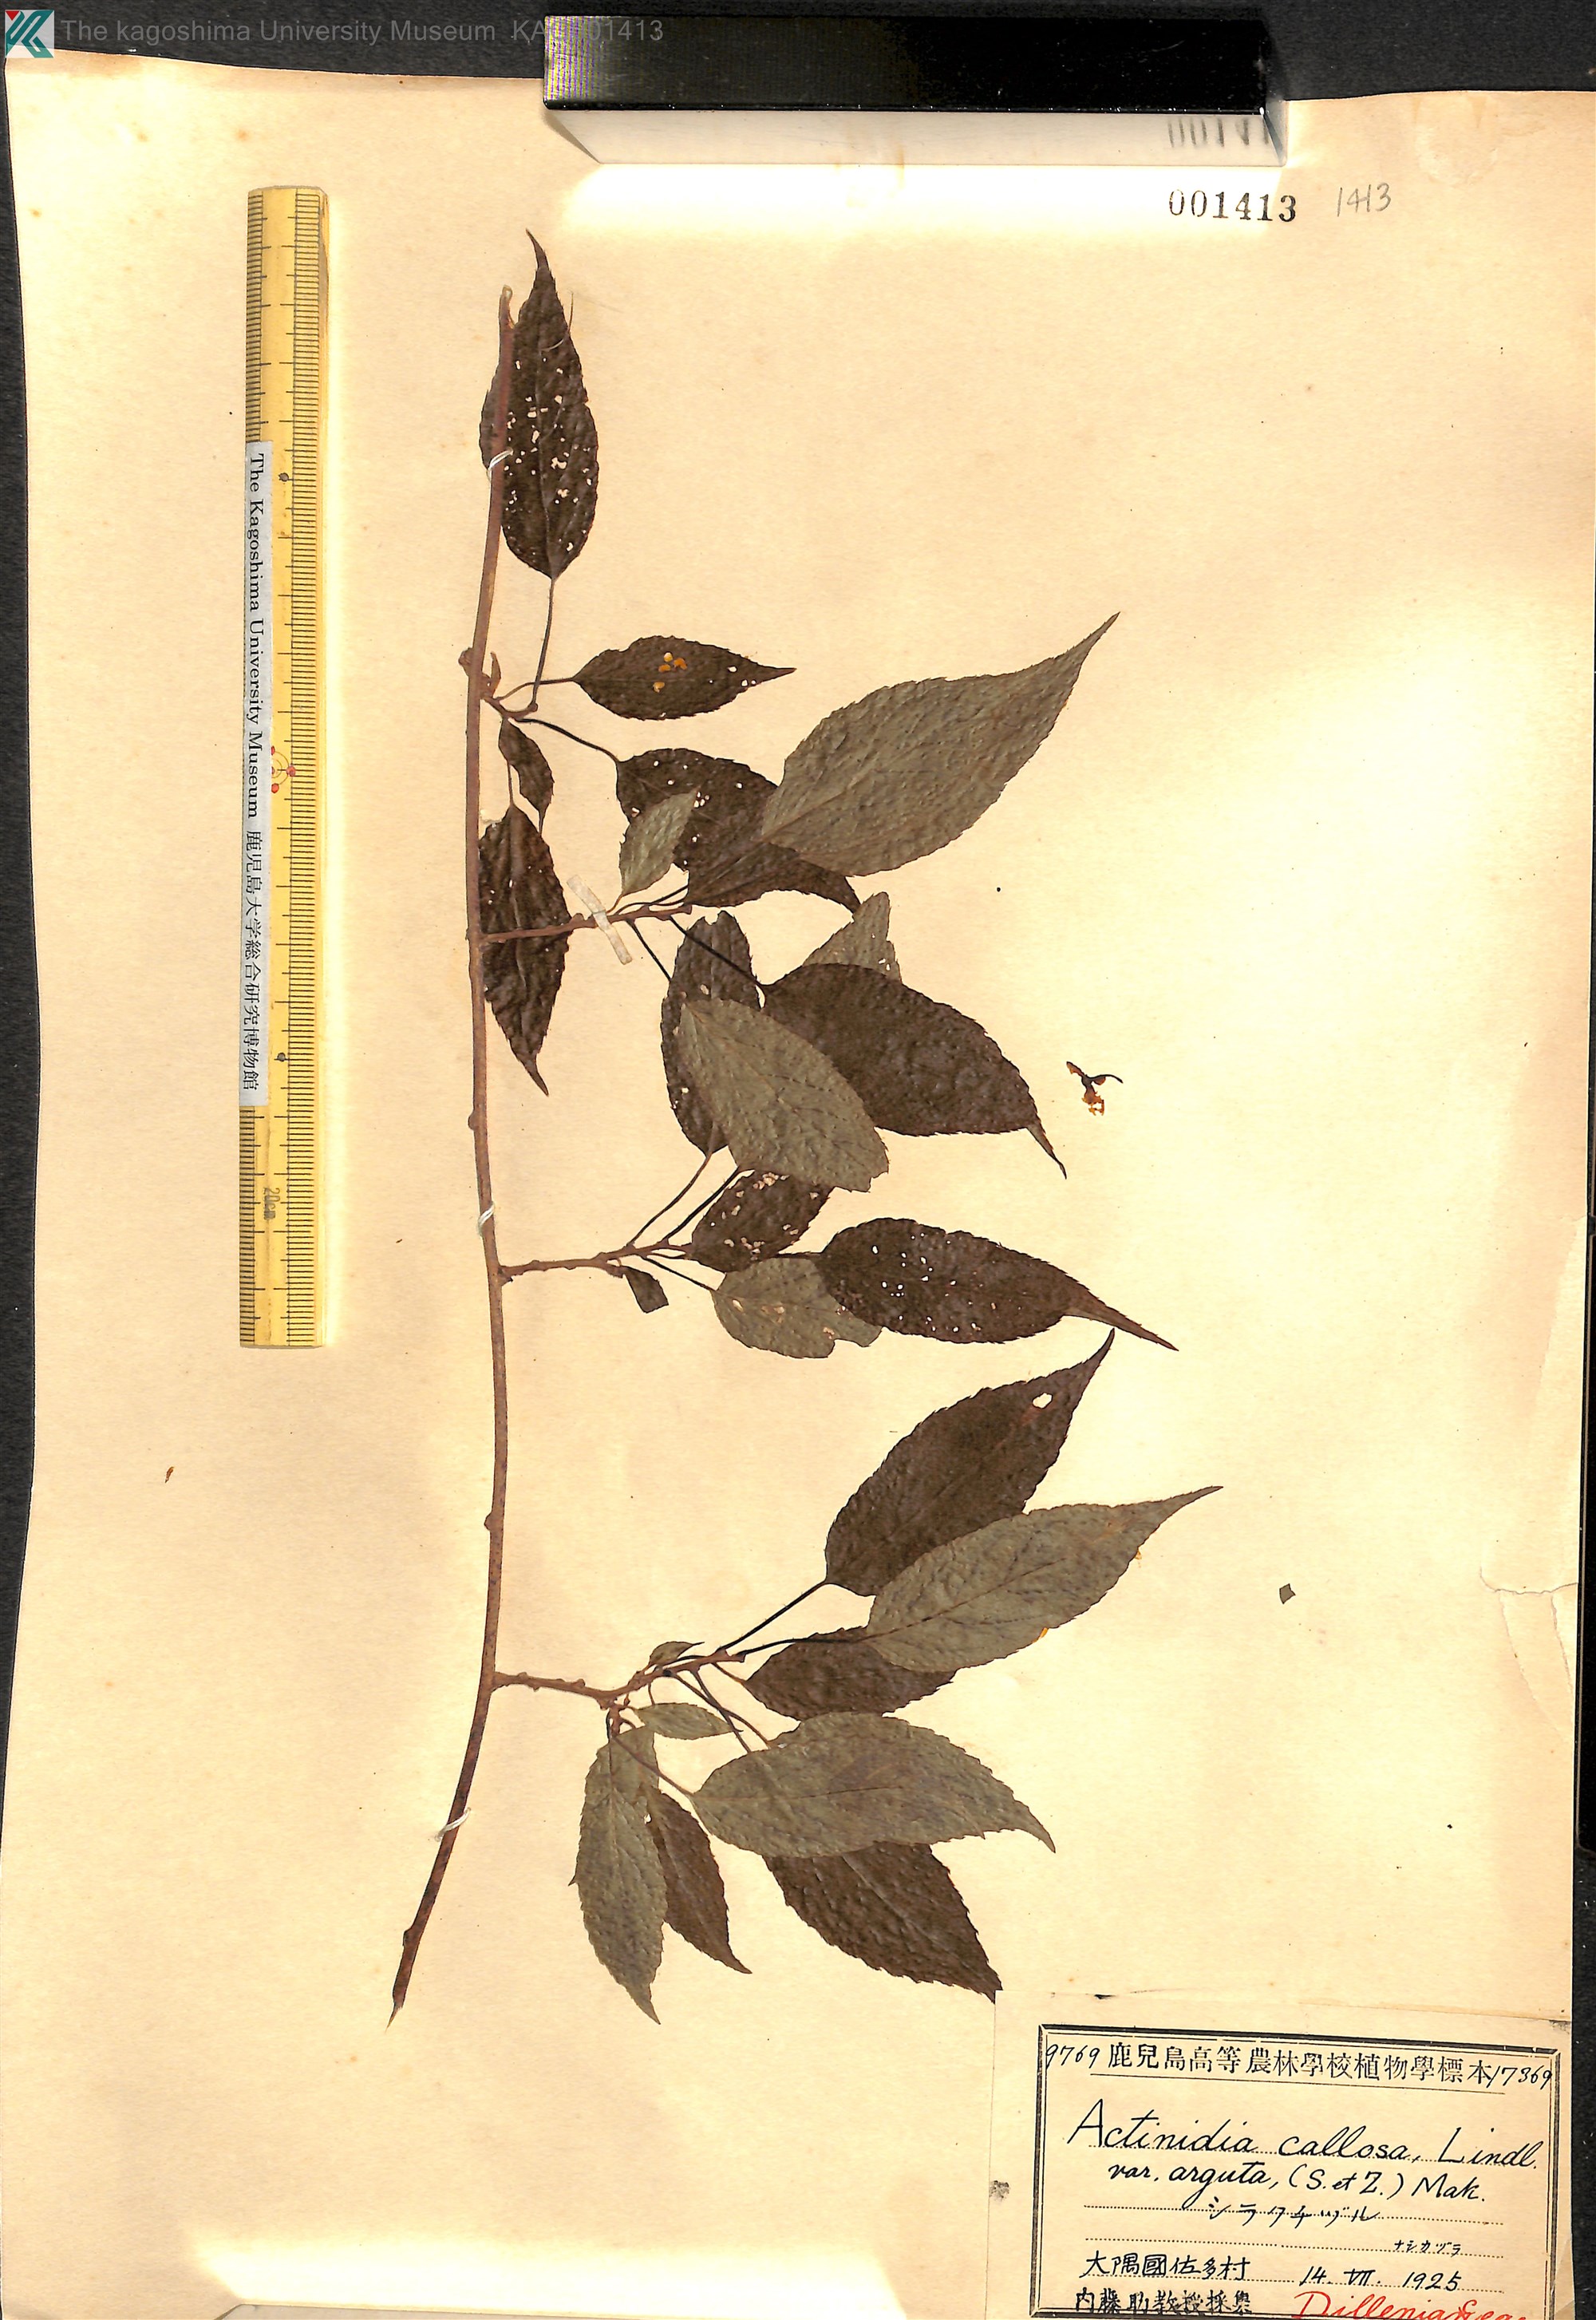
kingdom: Plantae
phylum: Tracheophyta
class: Magnoliopsida
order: Ericales
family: Actinidiaceae
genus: Actinidia
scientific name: Actinidia arguta
